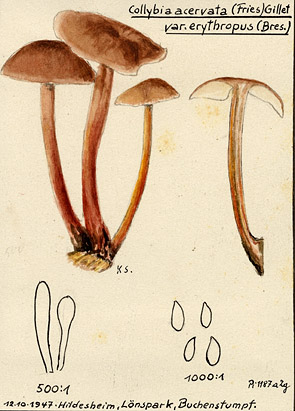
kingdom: Fungi
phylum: Basidiomycota
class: Agaricomycetes
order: Agaricales
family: Omphalotaceae
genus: Connopus
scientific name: Connopus acervatus
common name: Cluster cap
